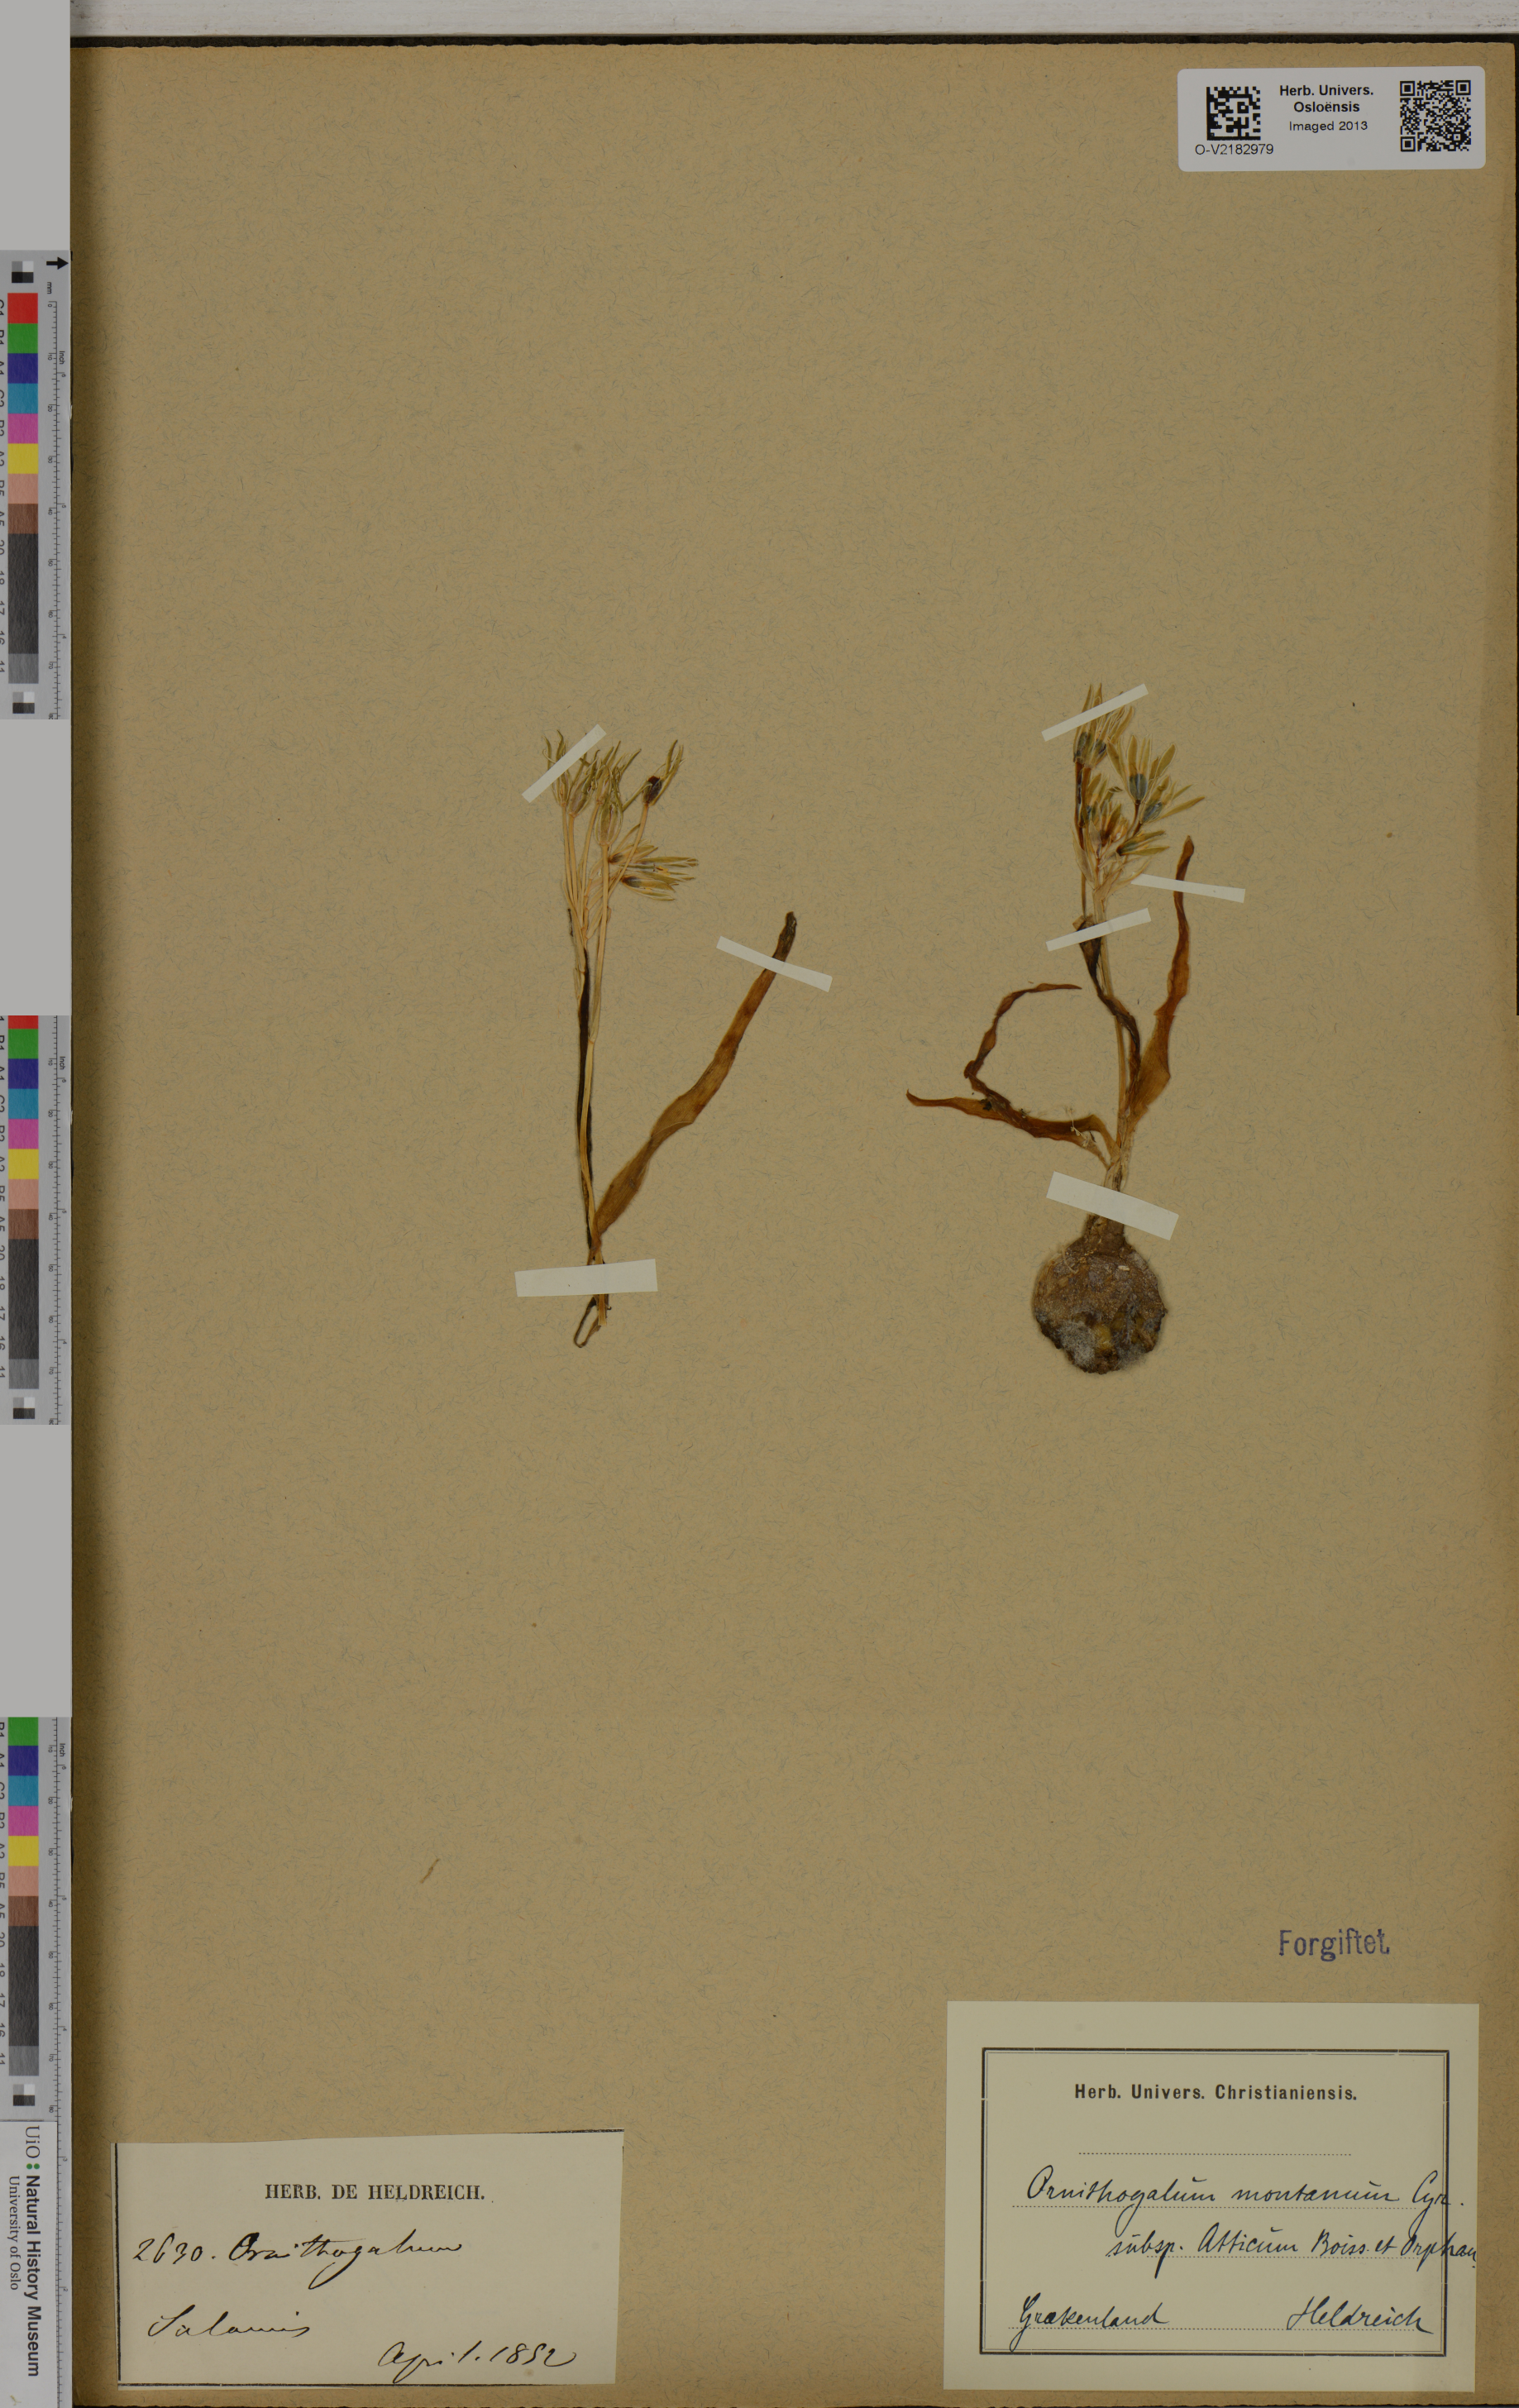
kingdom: Plantae
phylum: Tracheophyta
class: Liliopsida
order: Asparagales
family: Asparagaceae
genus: Ornithogalum
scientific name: Ornithogalum montanum
